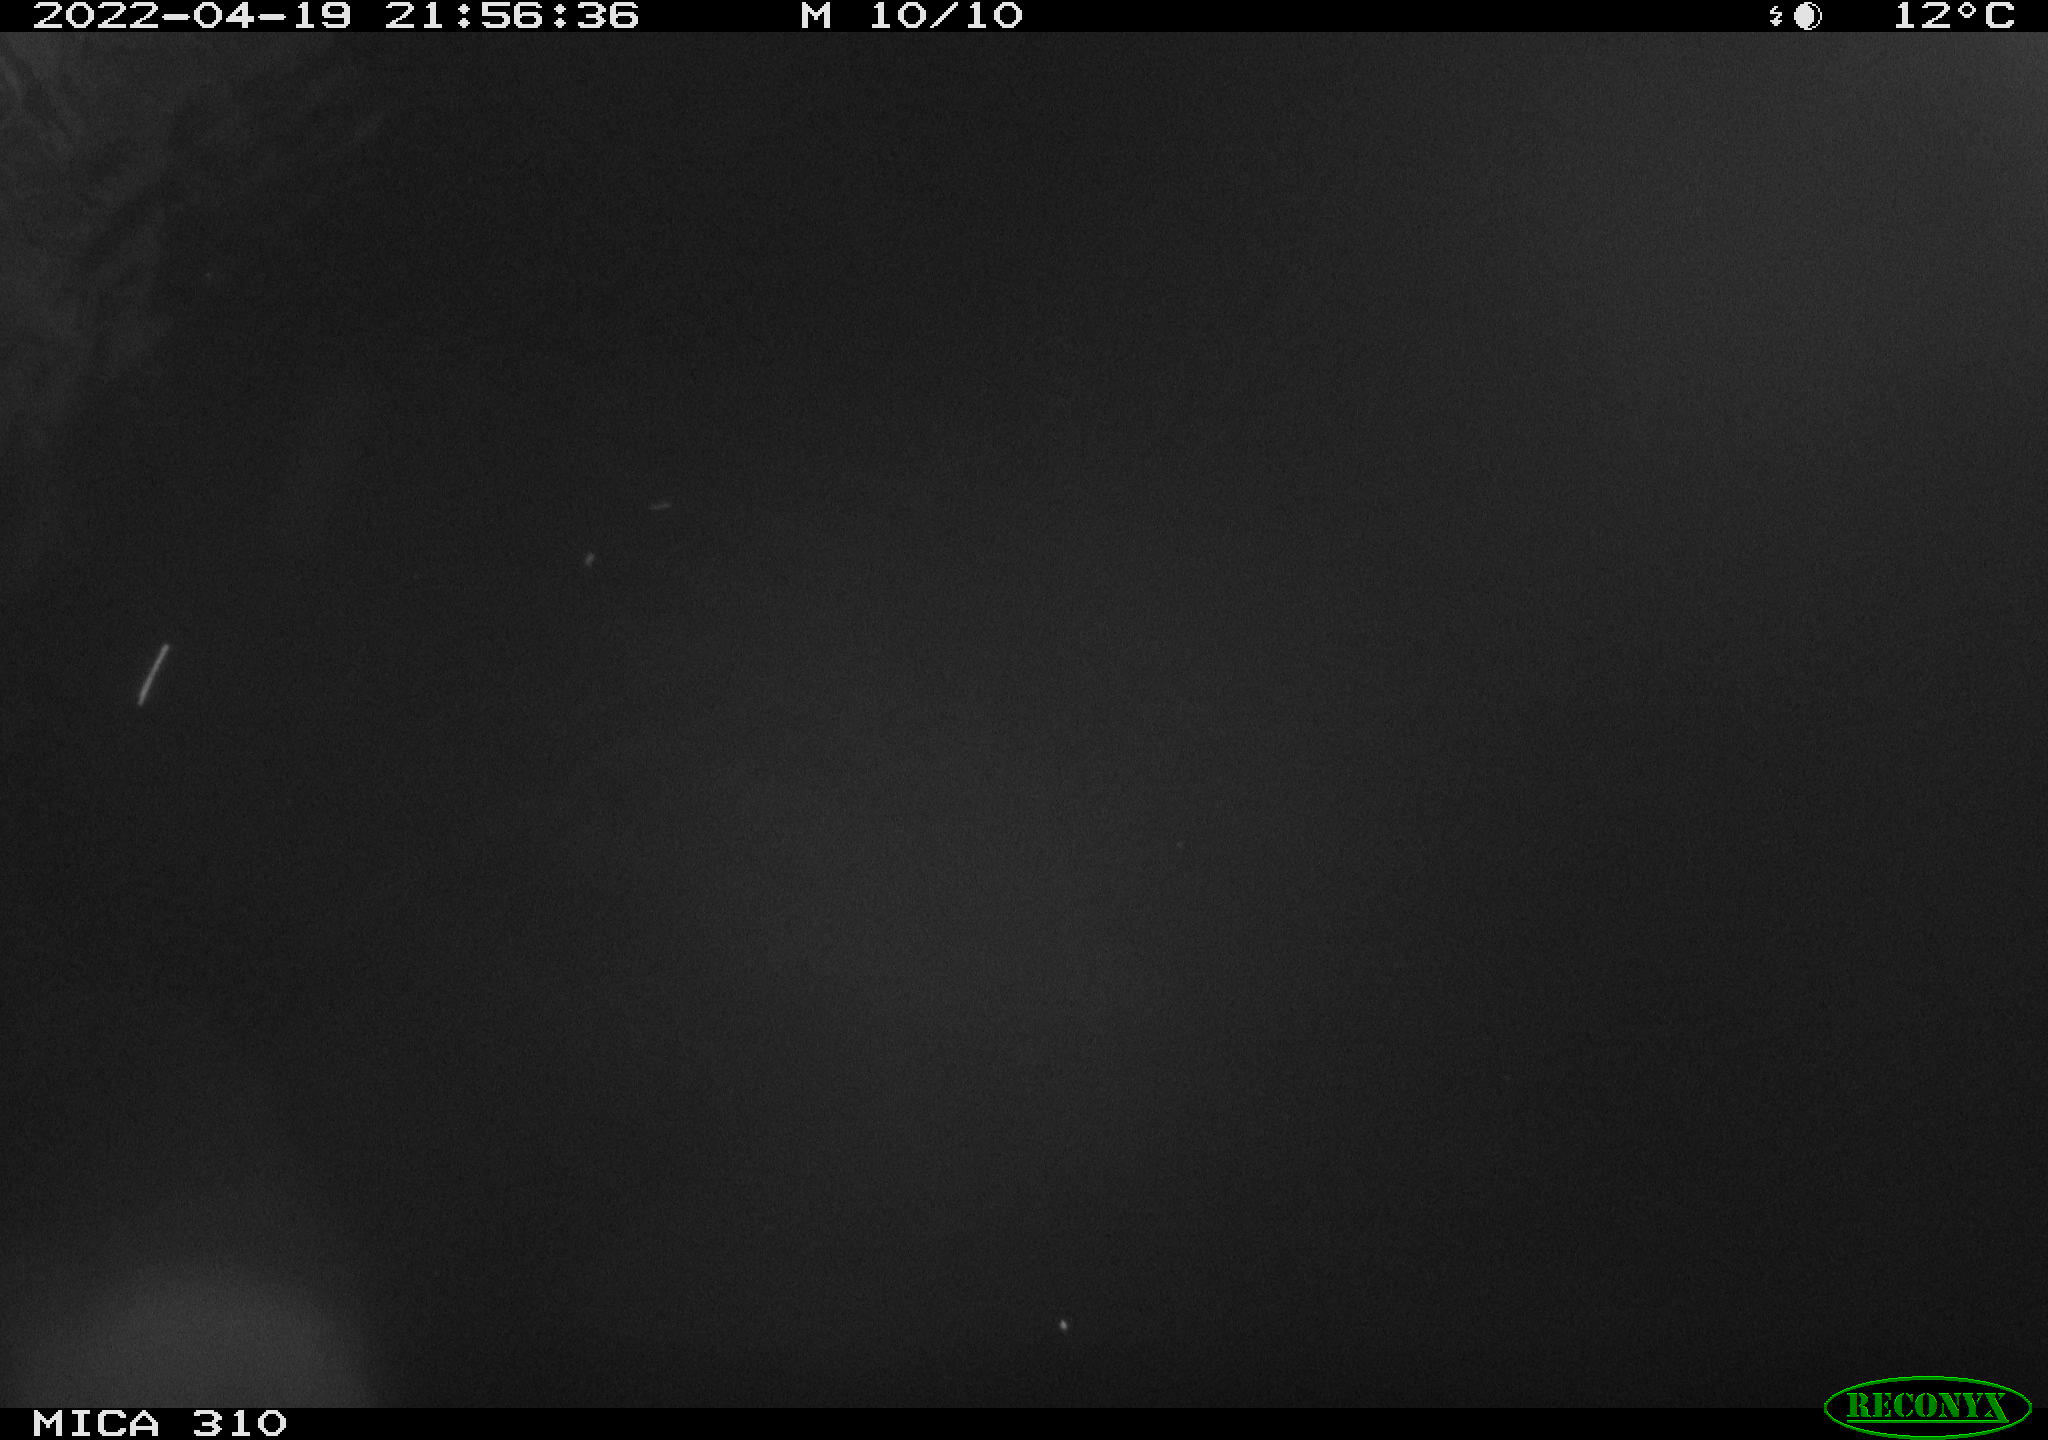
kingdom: Animalia
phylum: Chordata
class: Mammalia
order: Rodentia
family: Cricetidae
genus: Ondatra
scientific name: Ondatra zibethicus
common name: Muskrat
